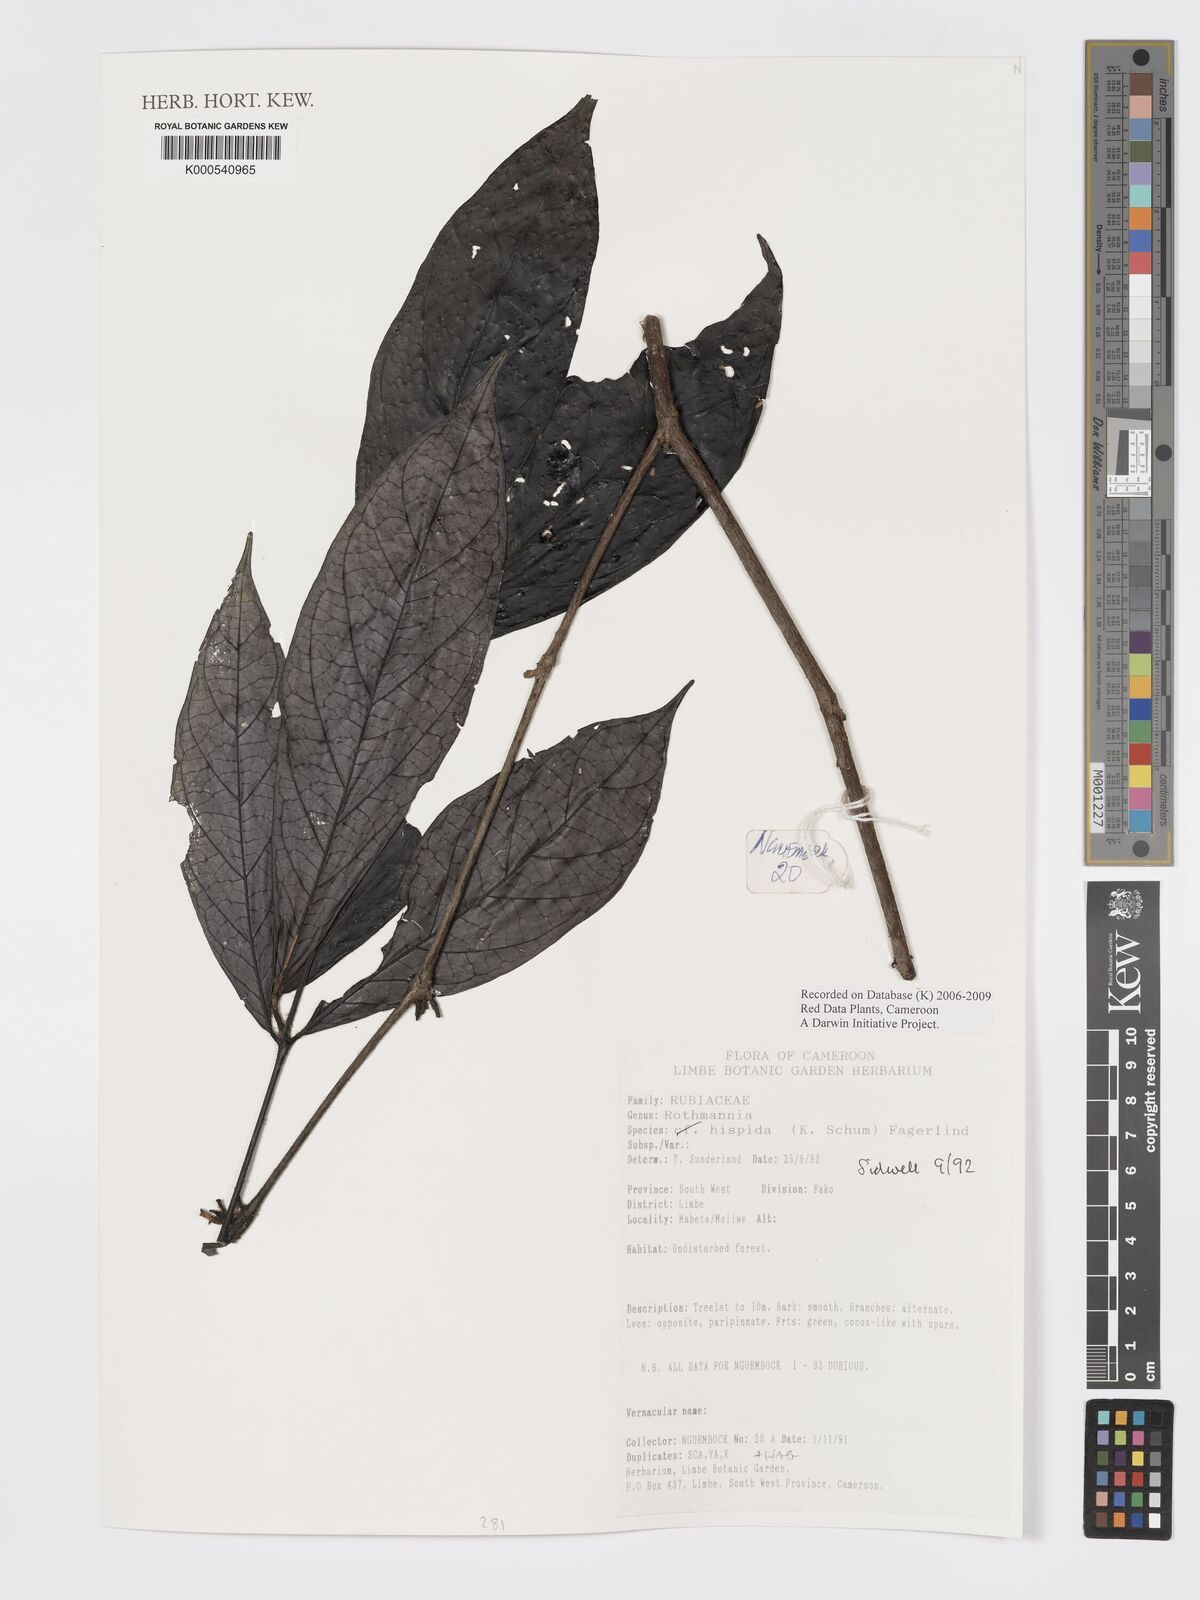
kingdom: Plantae
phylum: Tracheophyta
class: Magnoliopsida
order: Gentianales
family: Rubiaceae
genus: Rothmannia
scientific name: Rothmannia hispida
